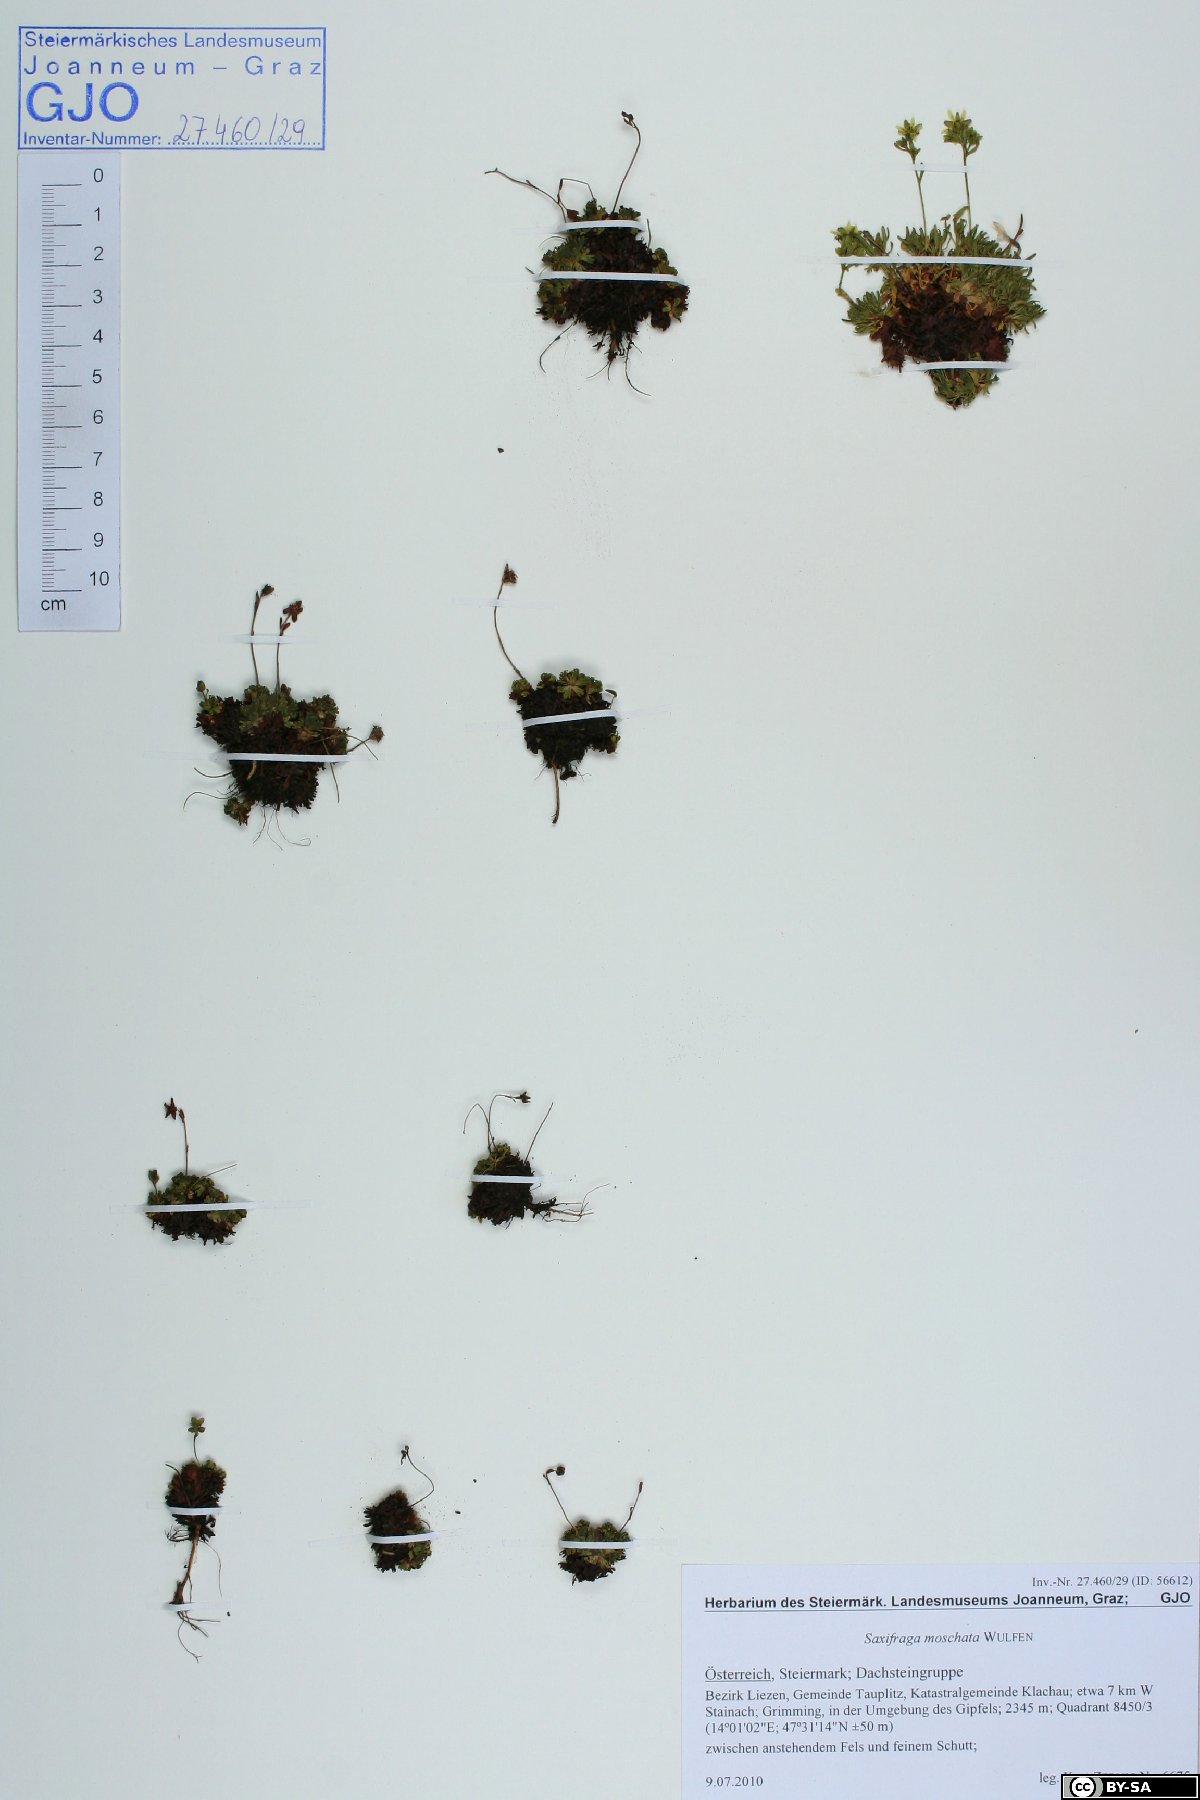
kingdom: Plantae
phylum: Tracheophyta
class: Magnoliopsida
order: Saxifragales
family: Saxifragaceae
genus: Saxifraga
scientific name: Saxifraga moschata
